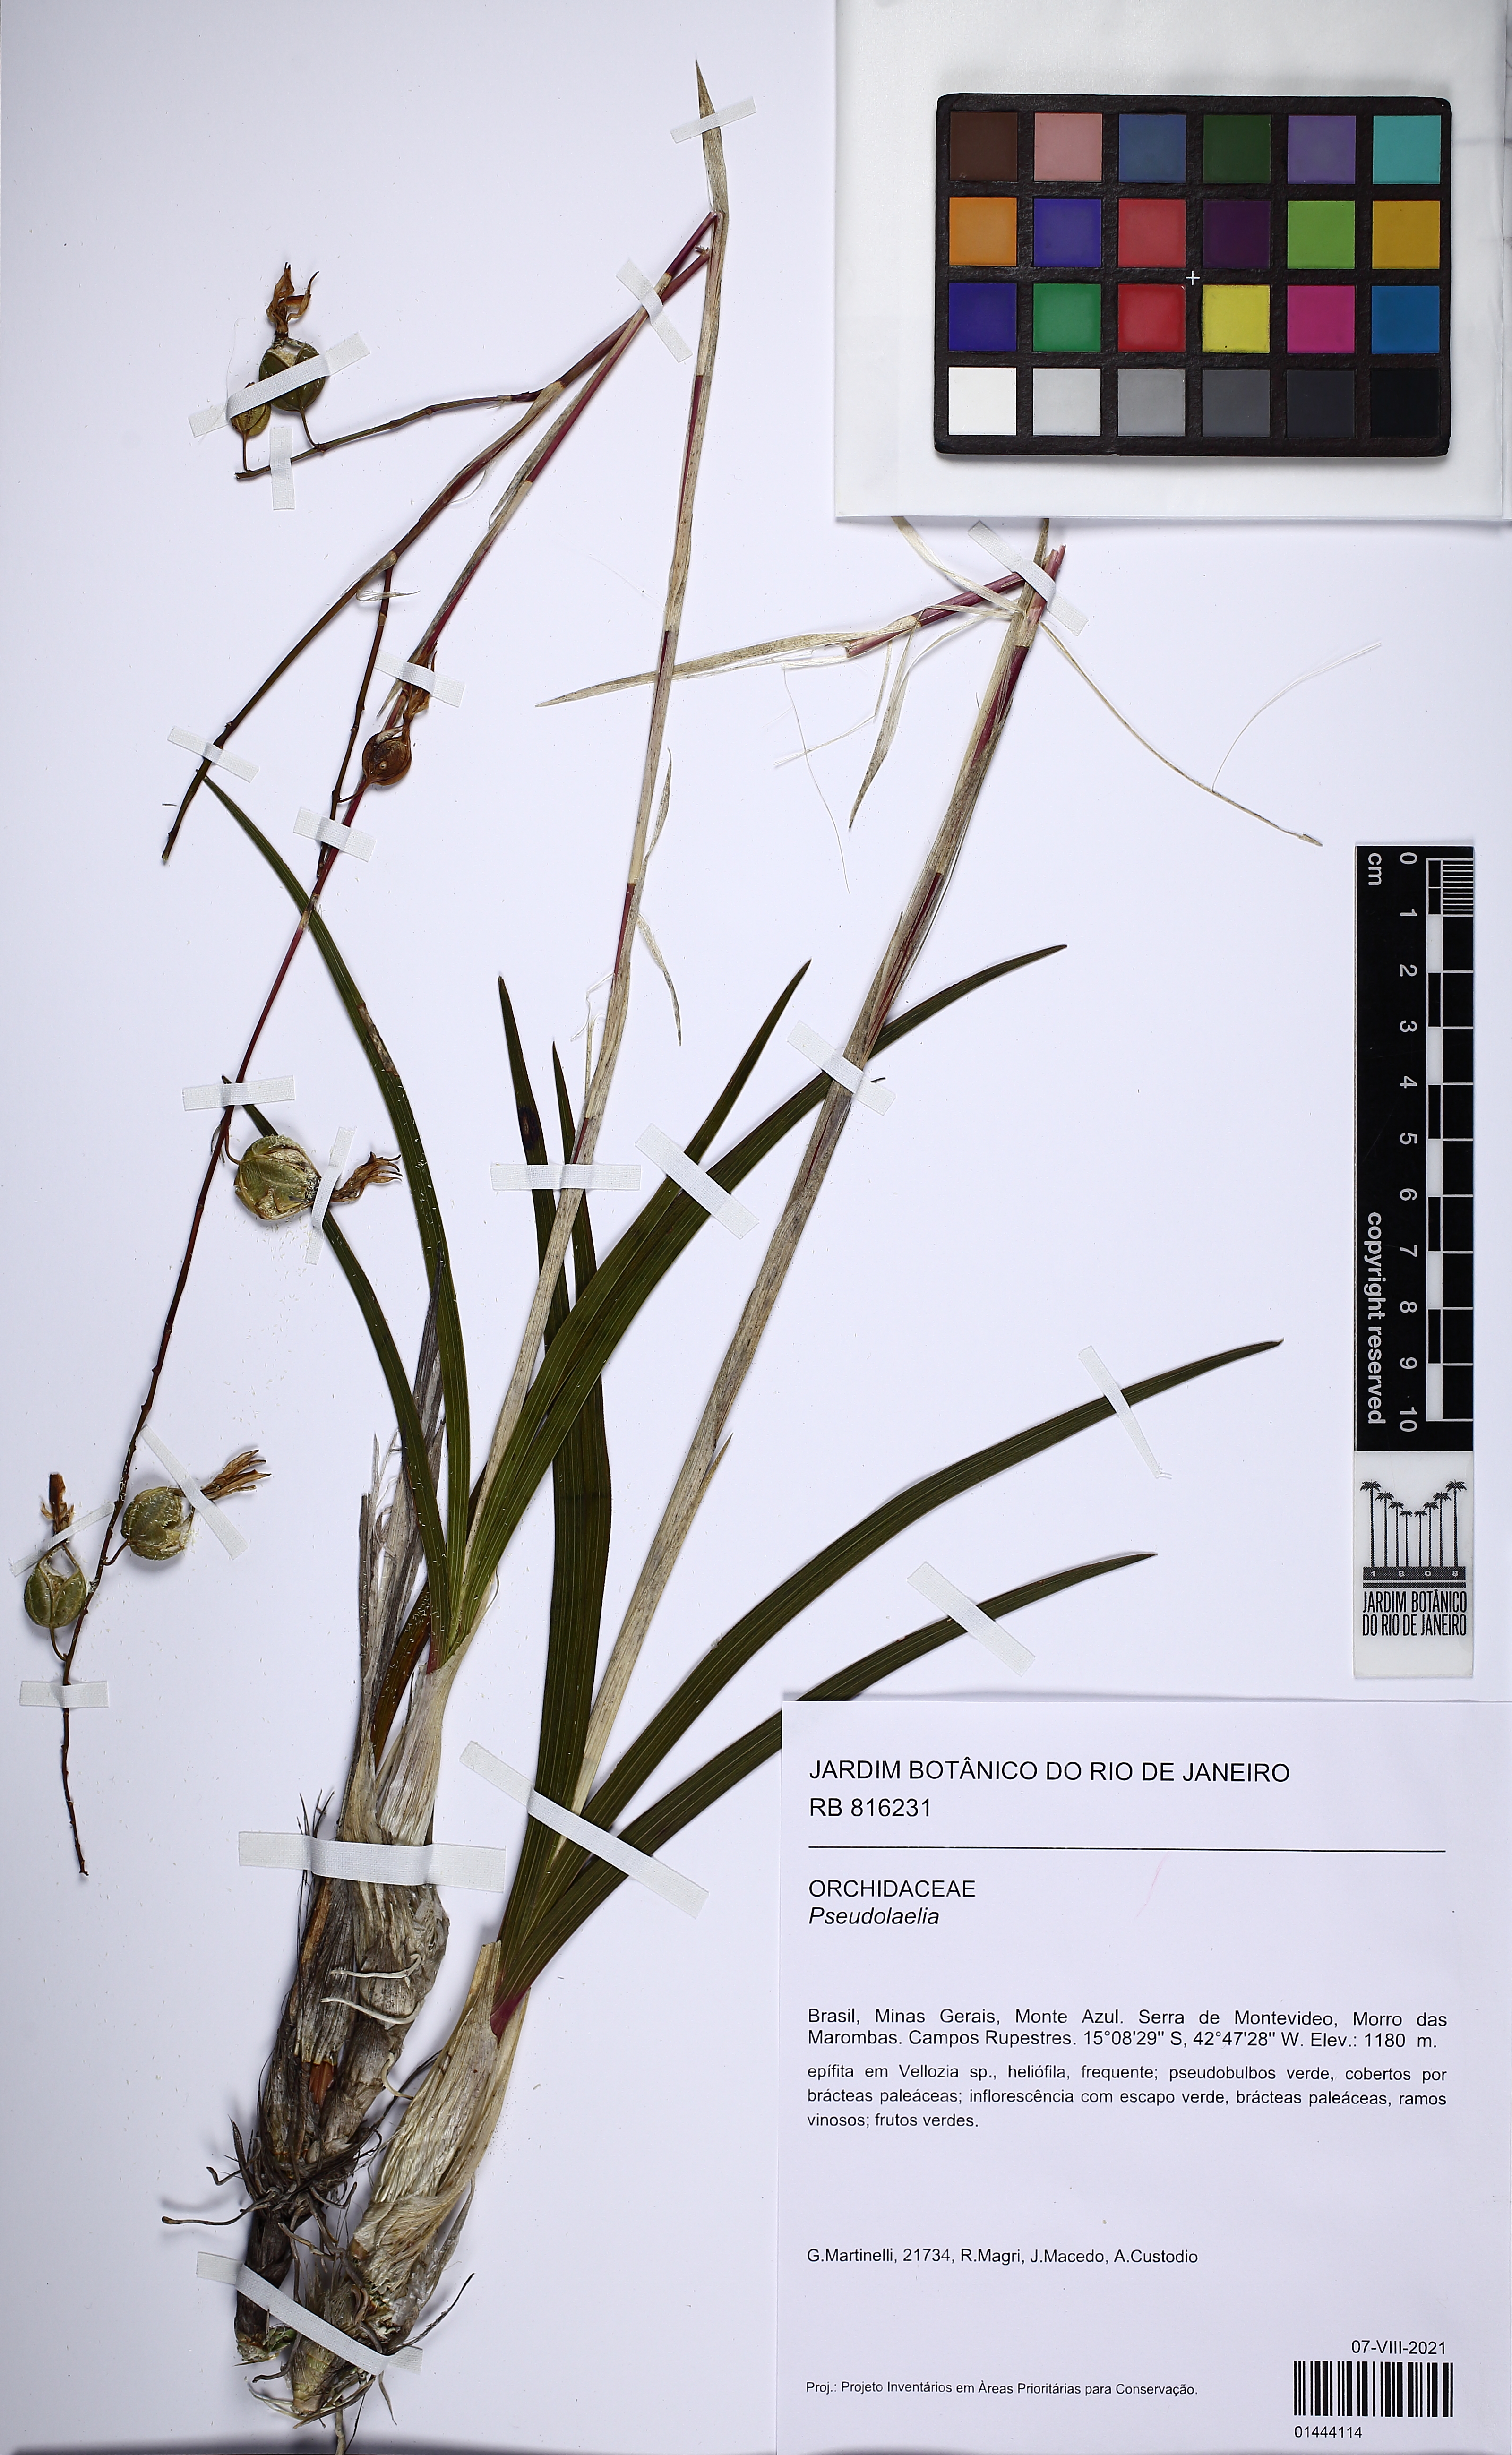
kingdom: Plantae
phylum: Tracheophyta
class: Liliopsida
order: Asparagales
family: Orchidaceae
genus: Pseudolaelia
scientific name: Pseudolaelia
